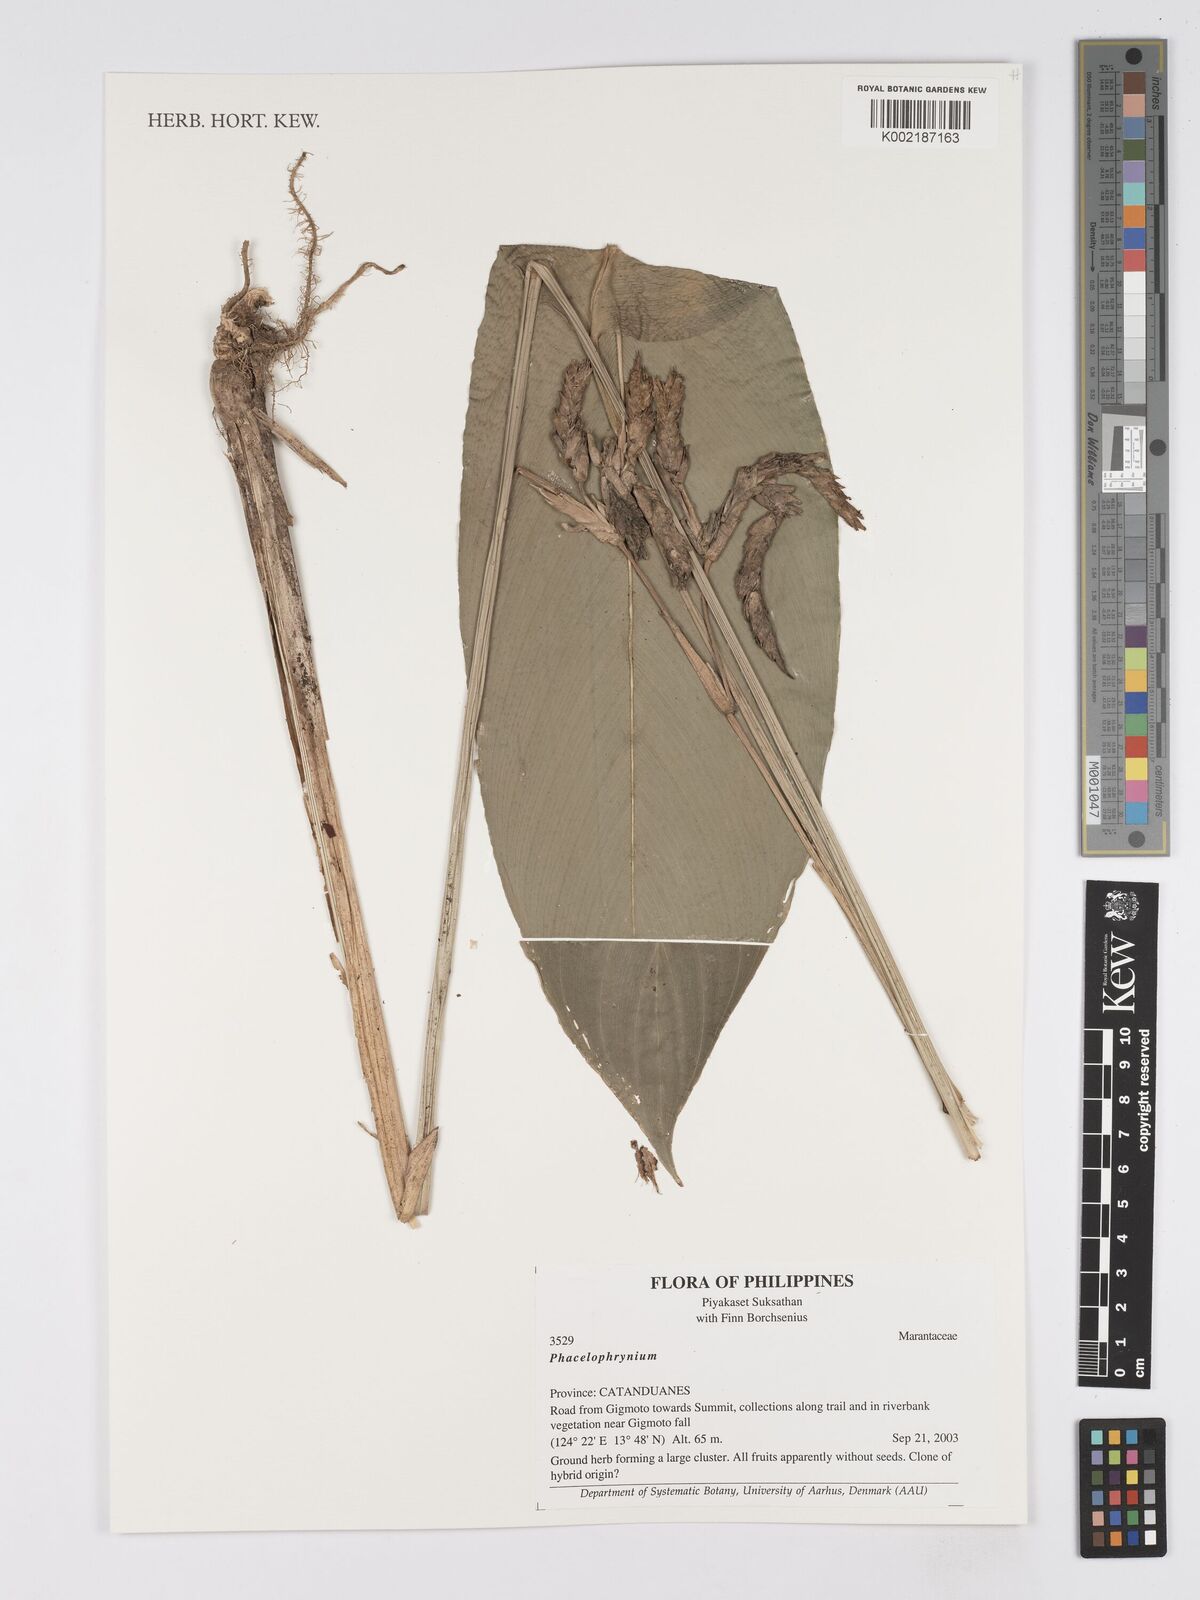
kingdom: Plantae
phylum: Tracheophyta
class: Liliopsida
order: Zingiberales
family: Marantaceae
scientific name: Marantaceae
